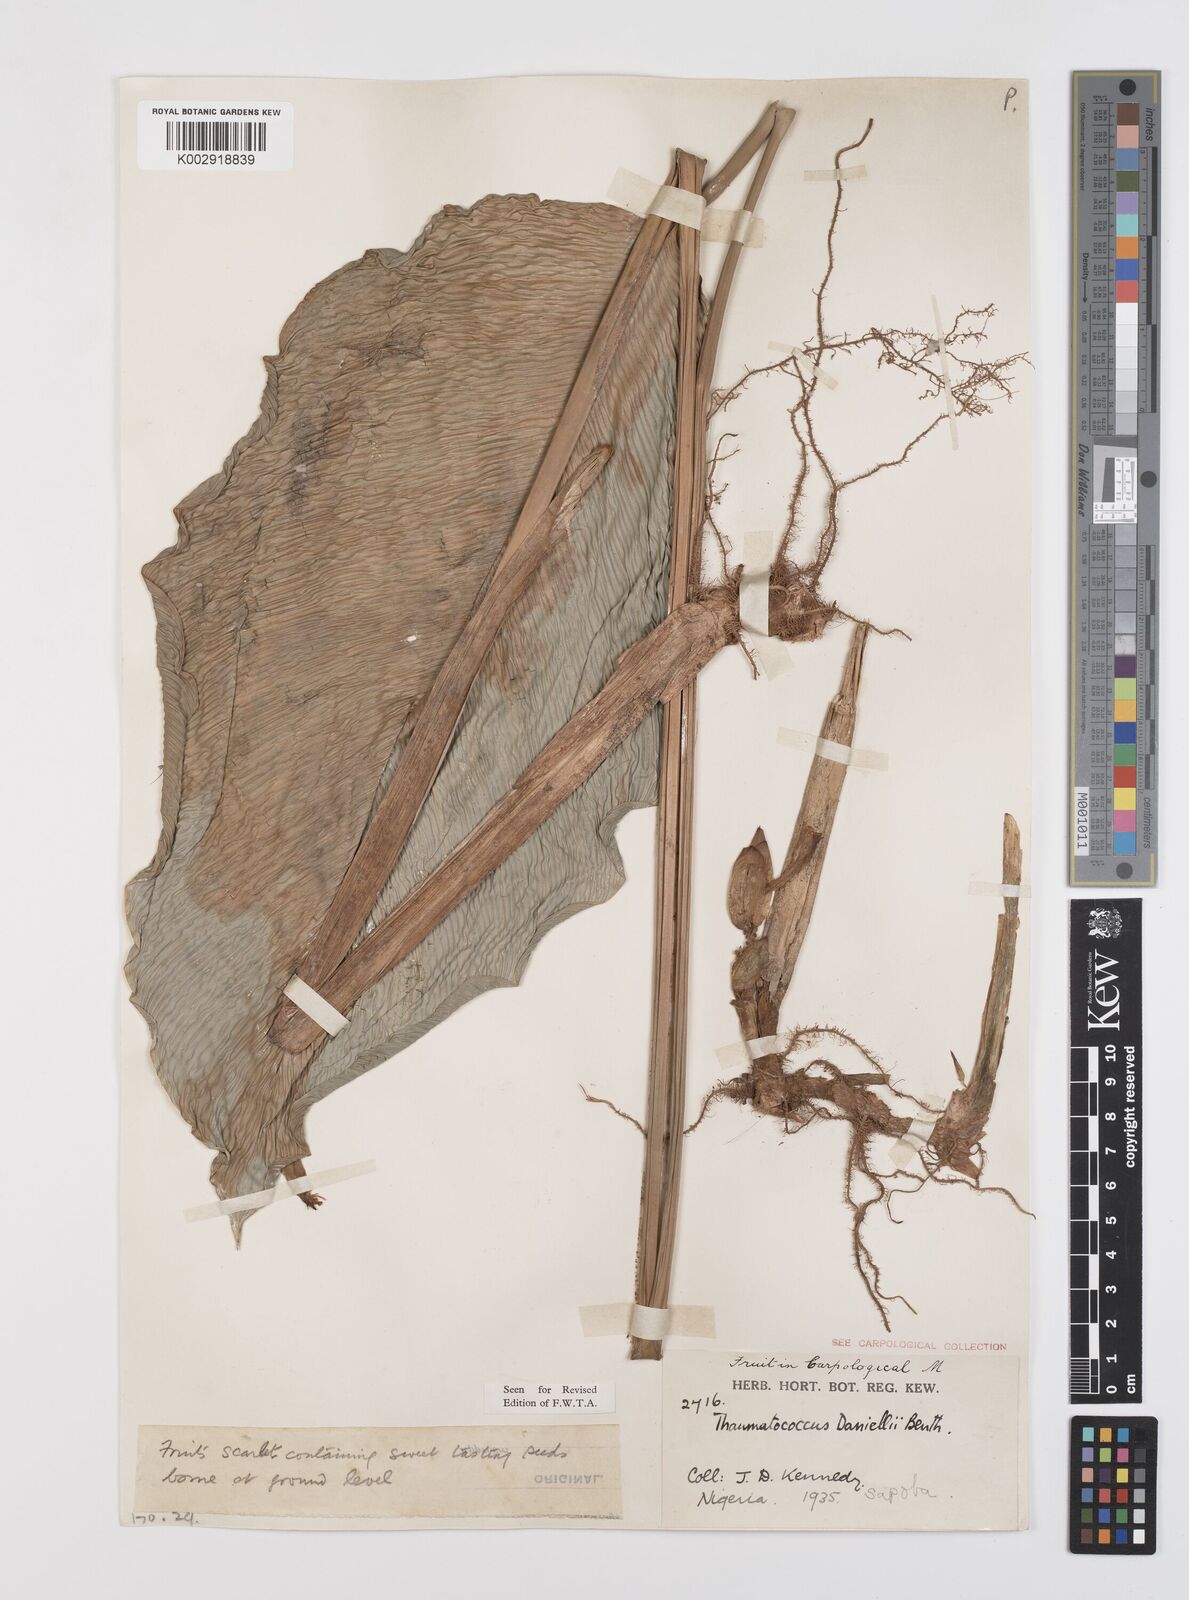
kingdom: Plantae
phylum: Tracheophyta
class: Liliopsida
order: Zingiberales
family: Marantaceae
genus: Thaumatococcus
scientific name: Thaumatococcus daniellii
